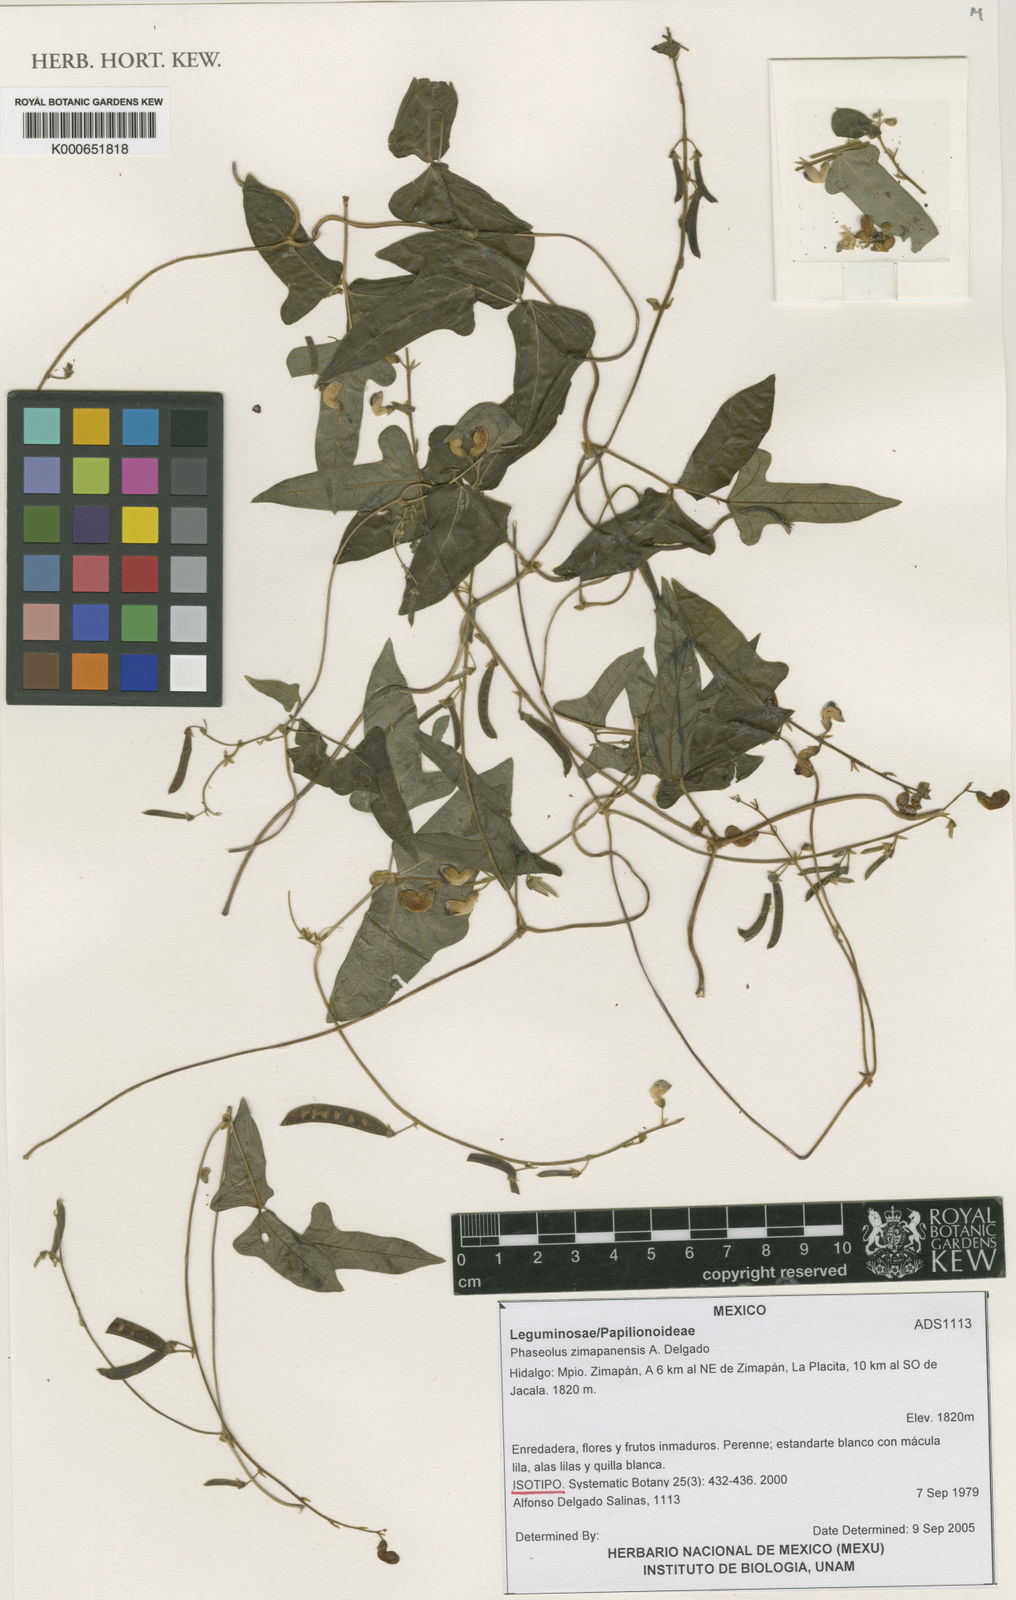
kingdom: Plantae
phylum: Tracheophyta
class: Magnoliopsida
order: Fabales
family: Fabaceae
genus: Phaseolus
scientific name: Phaseolus
